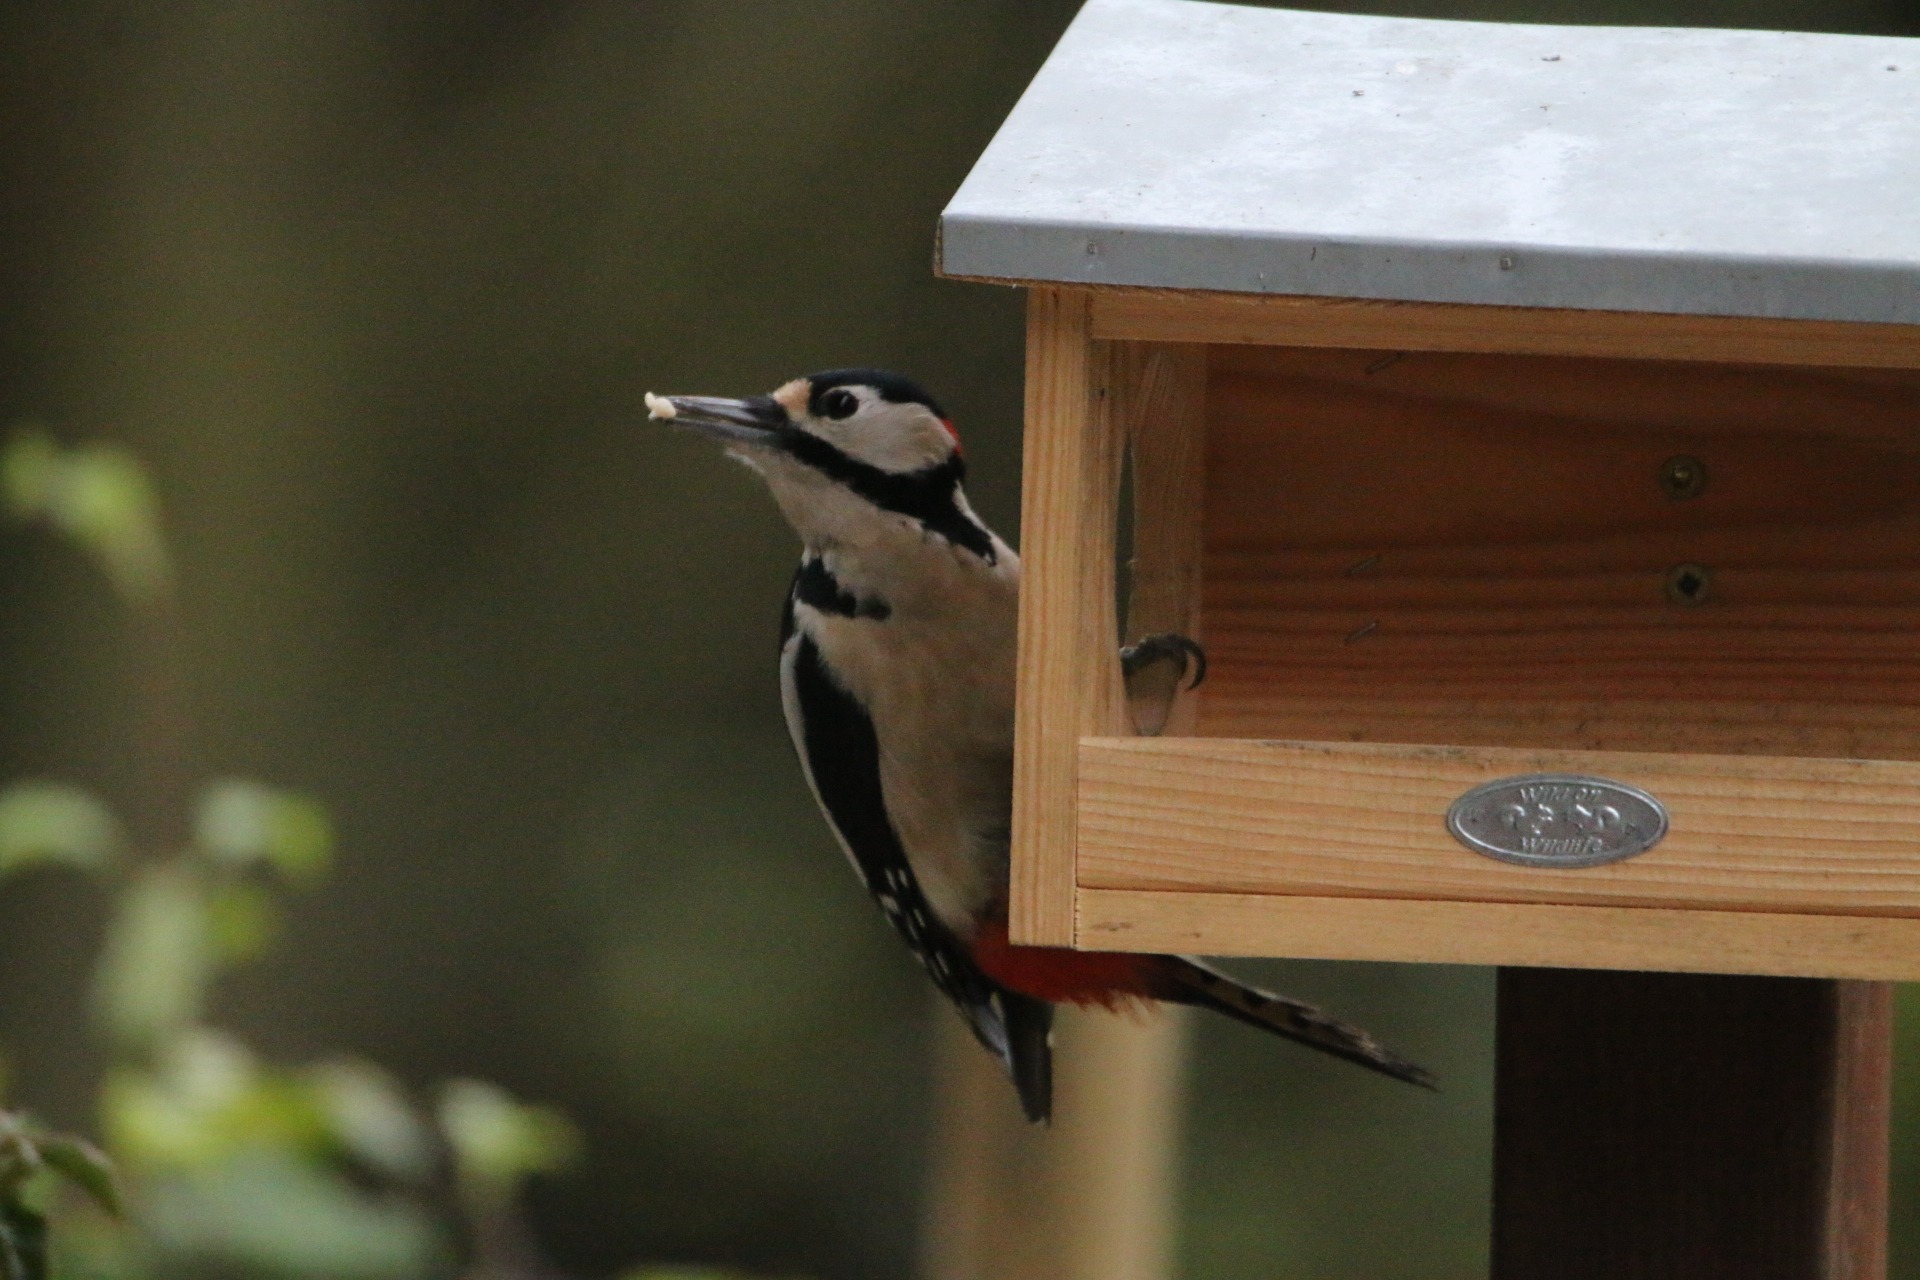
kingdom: Animalia
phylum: Chordata
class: Aves
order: Piciformes
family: Picidae
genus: Dendrocopos
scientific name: Dendrocopos major
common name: Stor flagspætte
